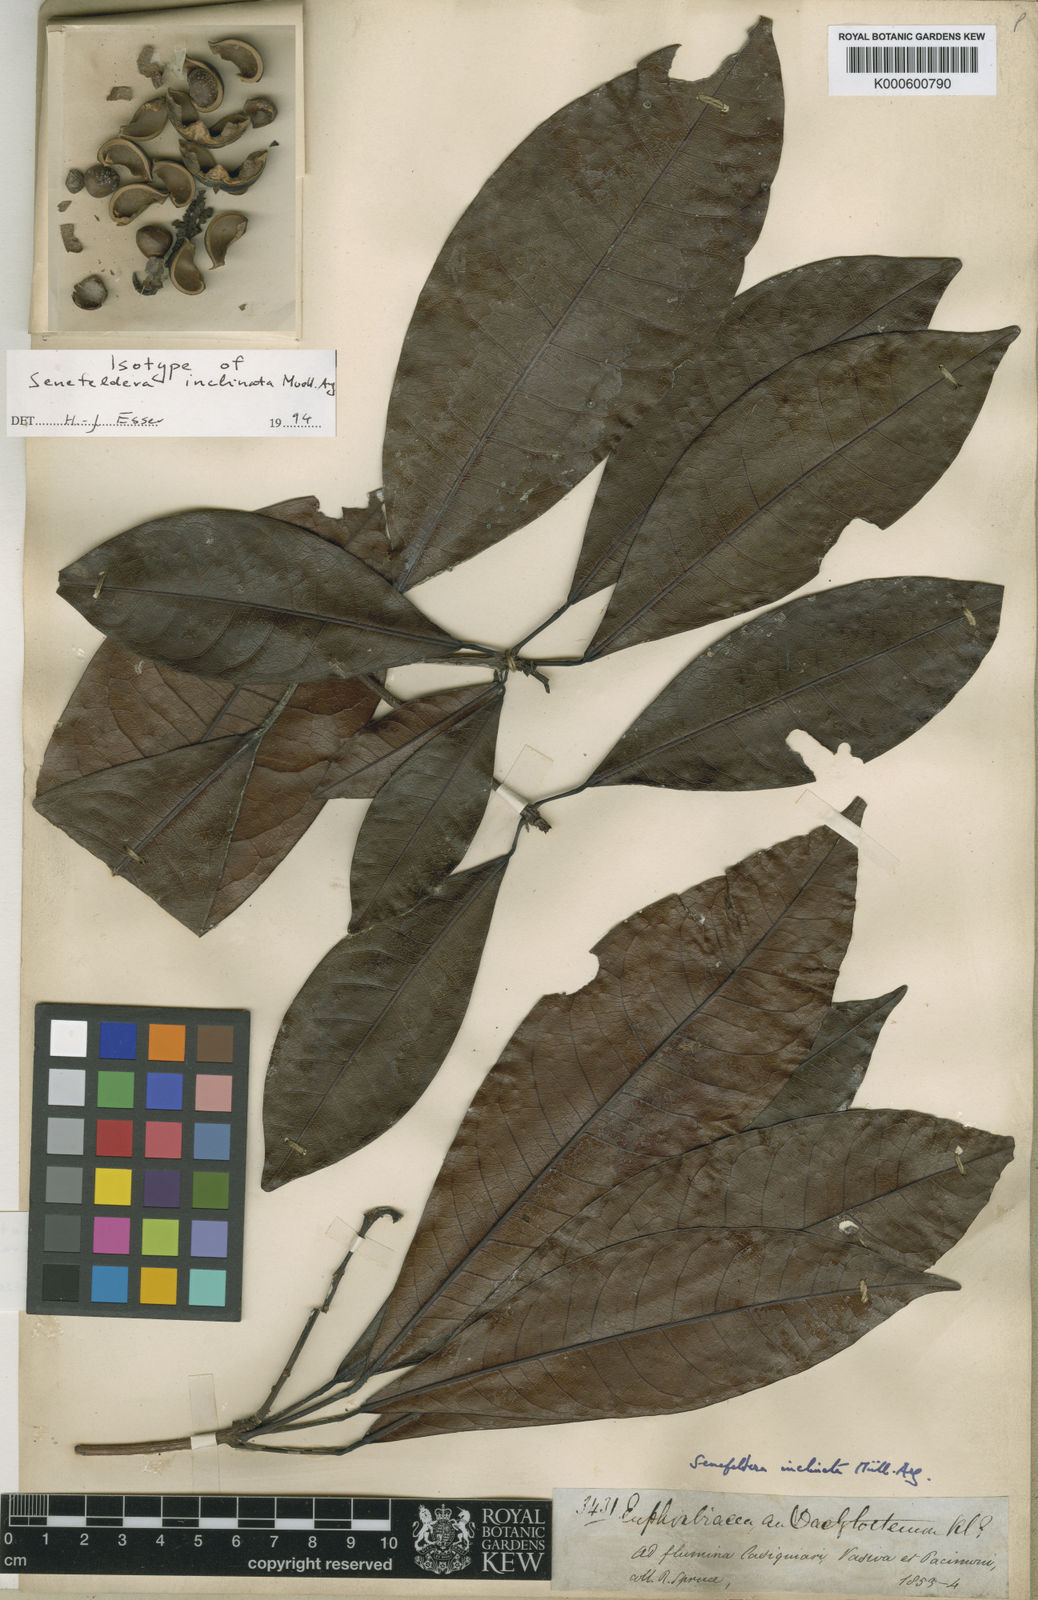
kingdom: Plantae
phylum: Tracheophyta
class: Magnoliopsida
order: Malpighiales
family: Euphorbiaceae
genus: Pseudosenefeldera
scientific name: Pseudosenefeldera
